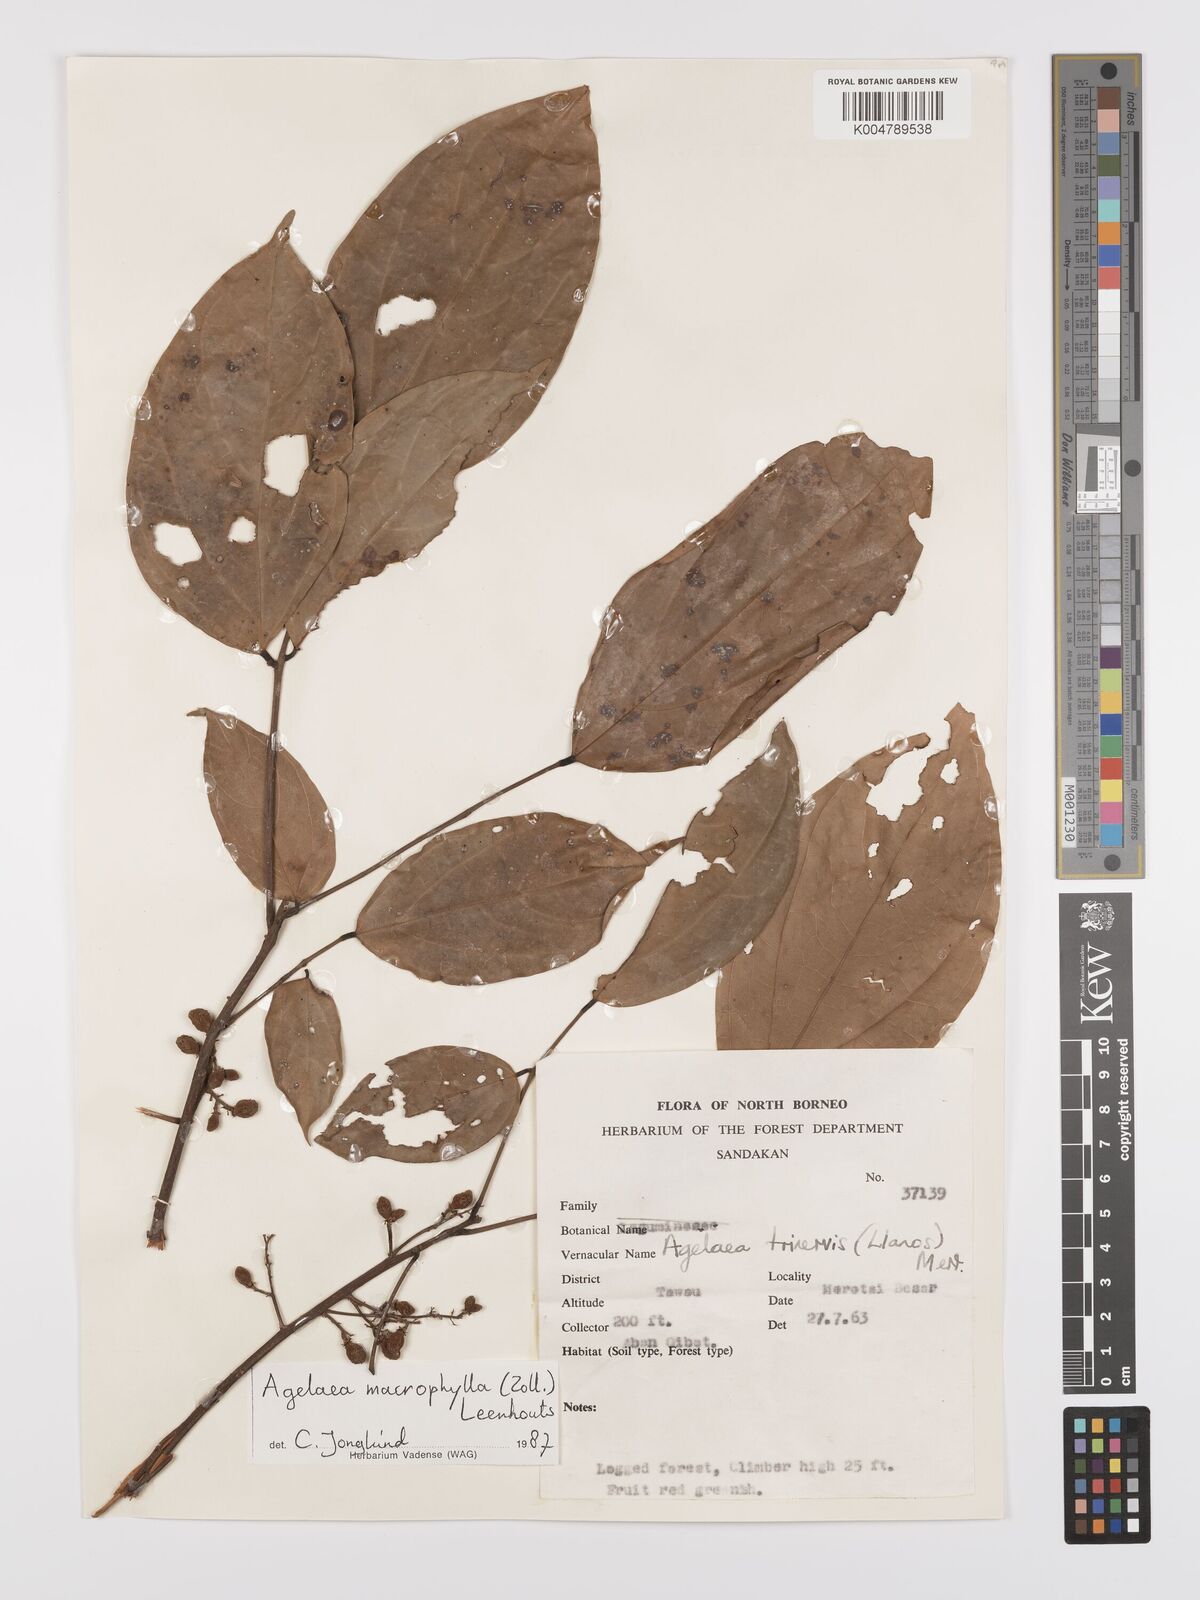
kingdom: Plantae
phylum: Tracheophyta
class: Magnoliopsida
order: Oxalidales
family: Connaraceae
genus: Agelaea
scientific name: Agelaea trinervis
